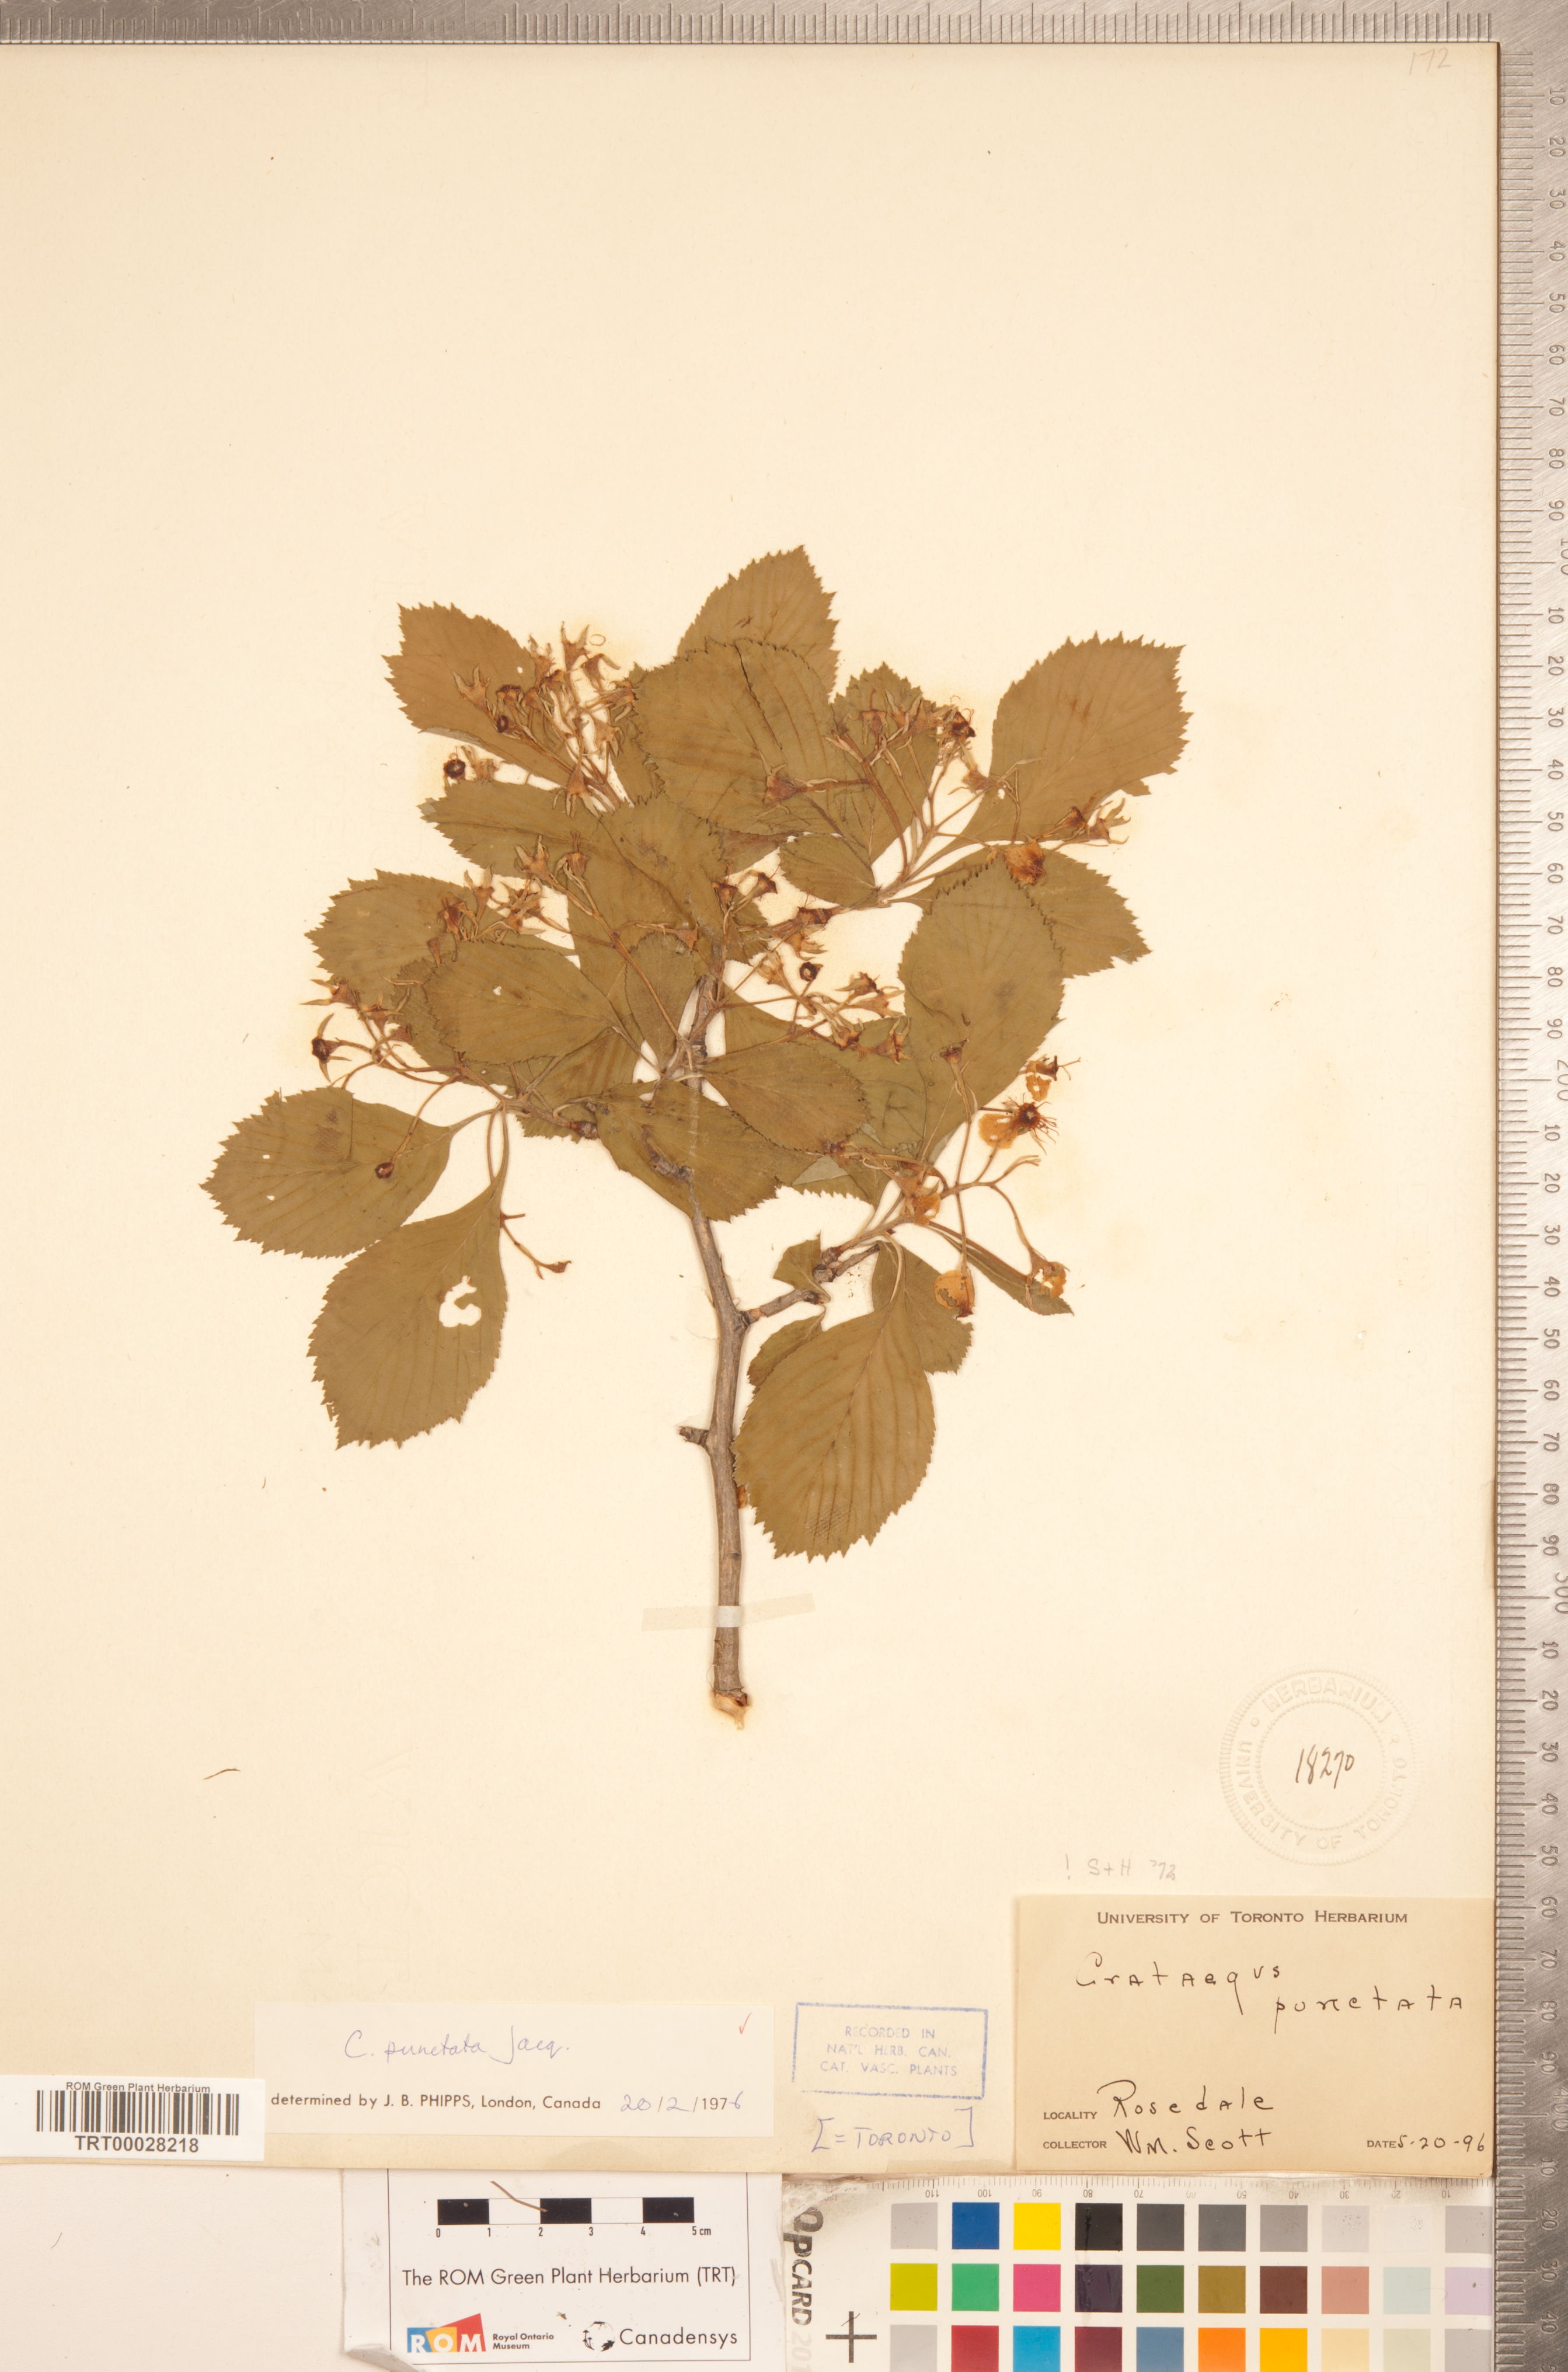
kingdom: Plantae
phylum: Tracheophyta
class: Magnoliopsida
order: Rosales
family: Rosaceae
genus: Crataegus
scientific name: Crataegus punctata
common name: Dotted hawthorn
